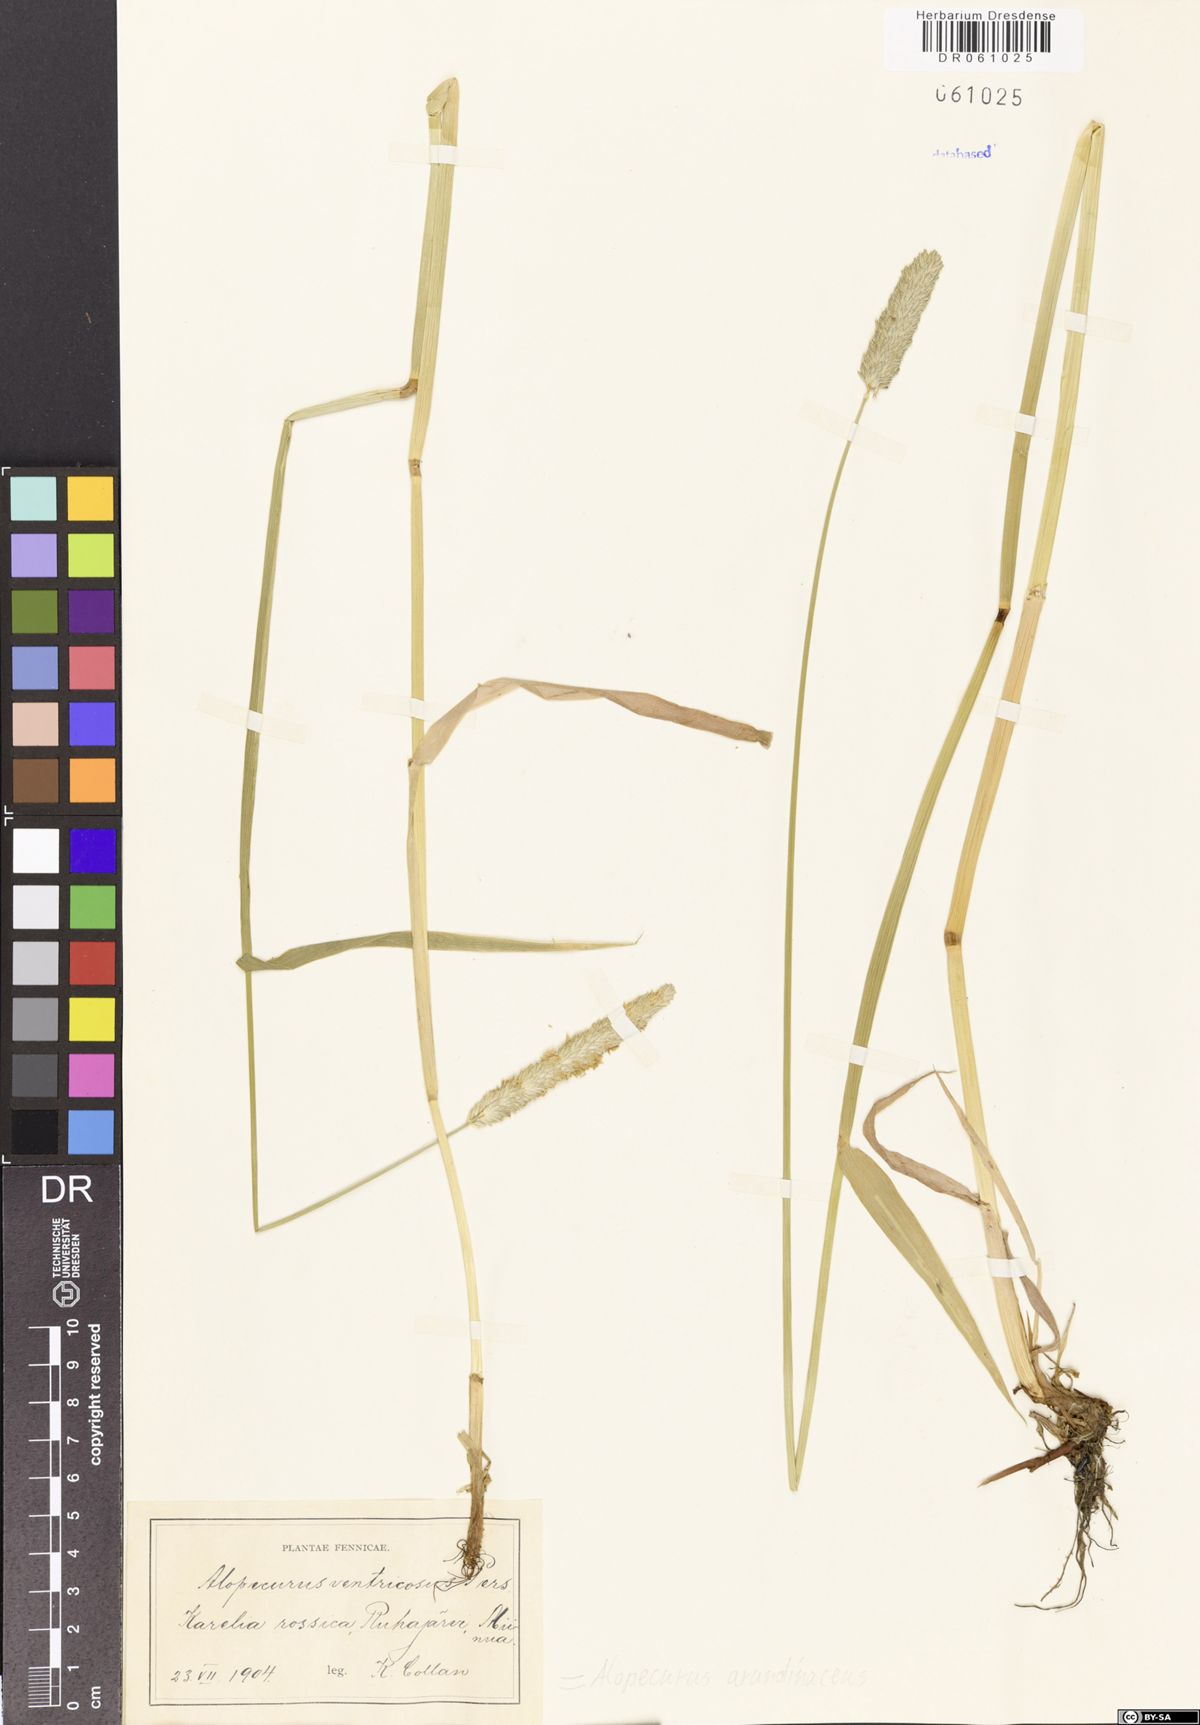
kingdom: Plantae
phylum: Tracheophyta
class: Liliopsida
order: Poales
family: Poaceae
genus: Alopecurus
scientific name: Alopecurus arundinaceus
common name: Creeping meadow foxtail
